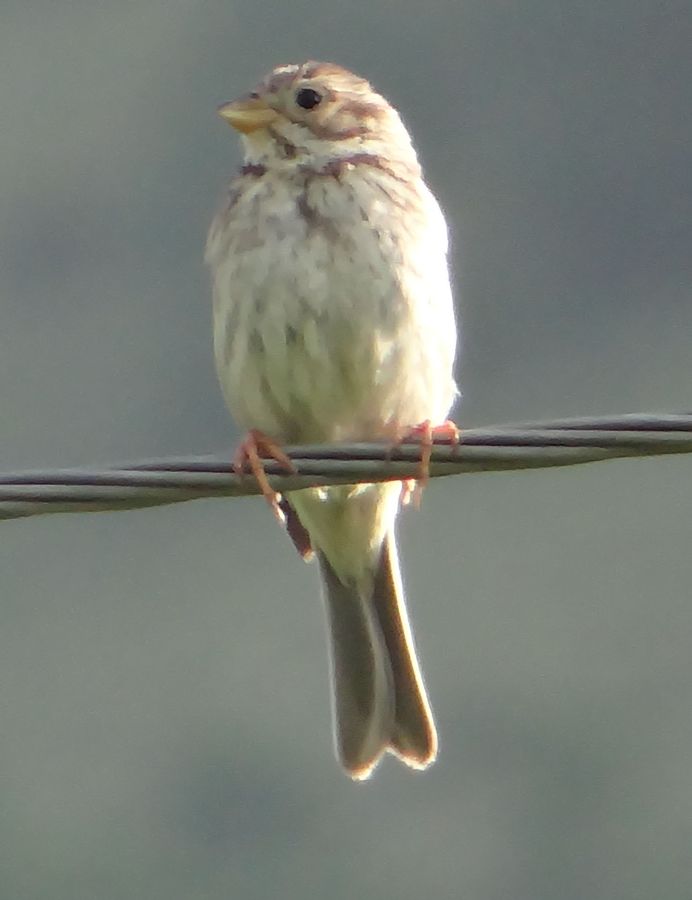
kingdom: Animalia
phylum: Chordata
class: Aves
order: Passeriformes
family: Emberizidae
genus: Emberiza
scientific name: Emberiza calandra
